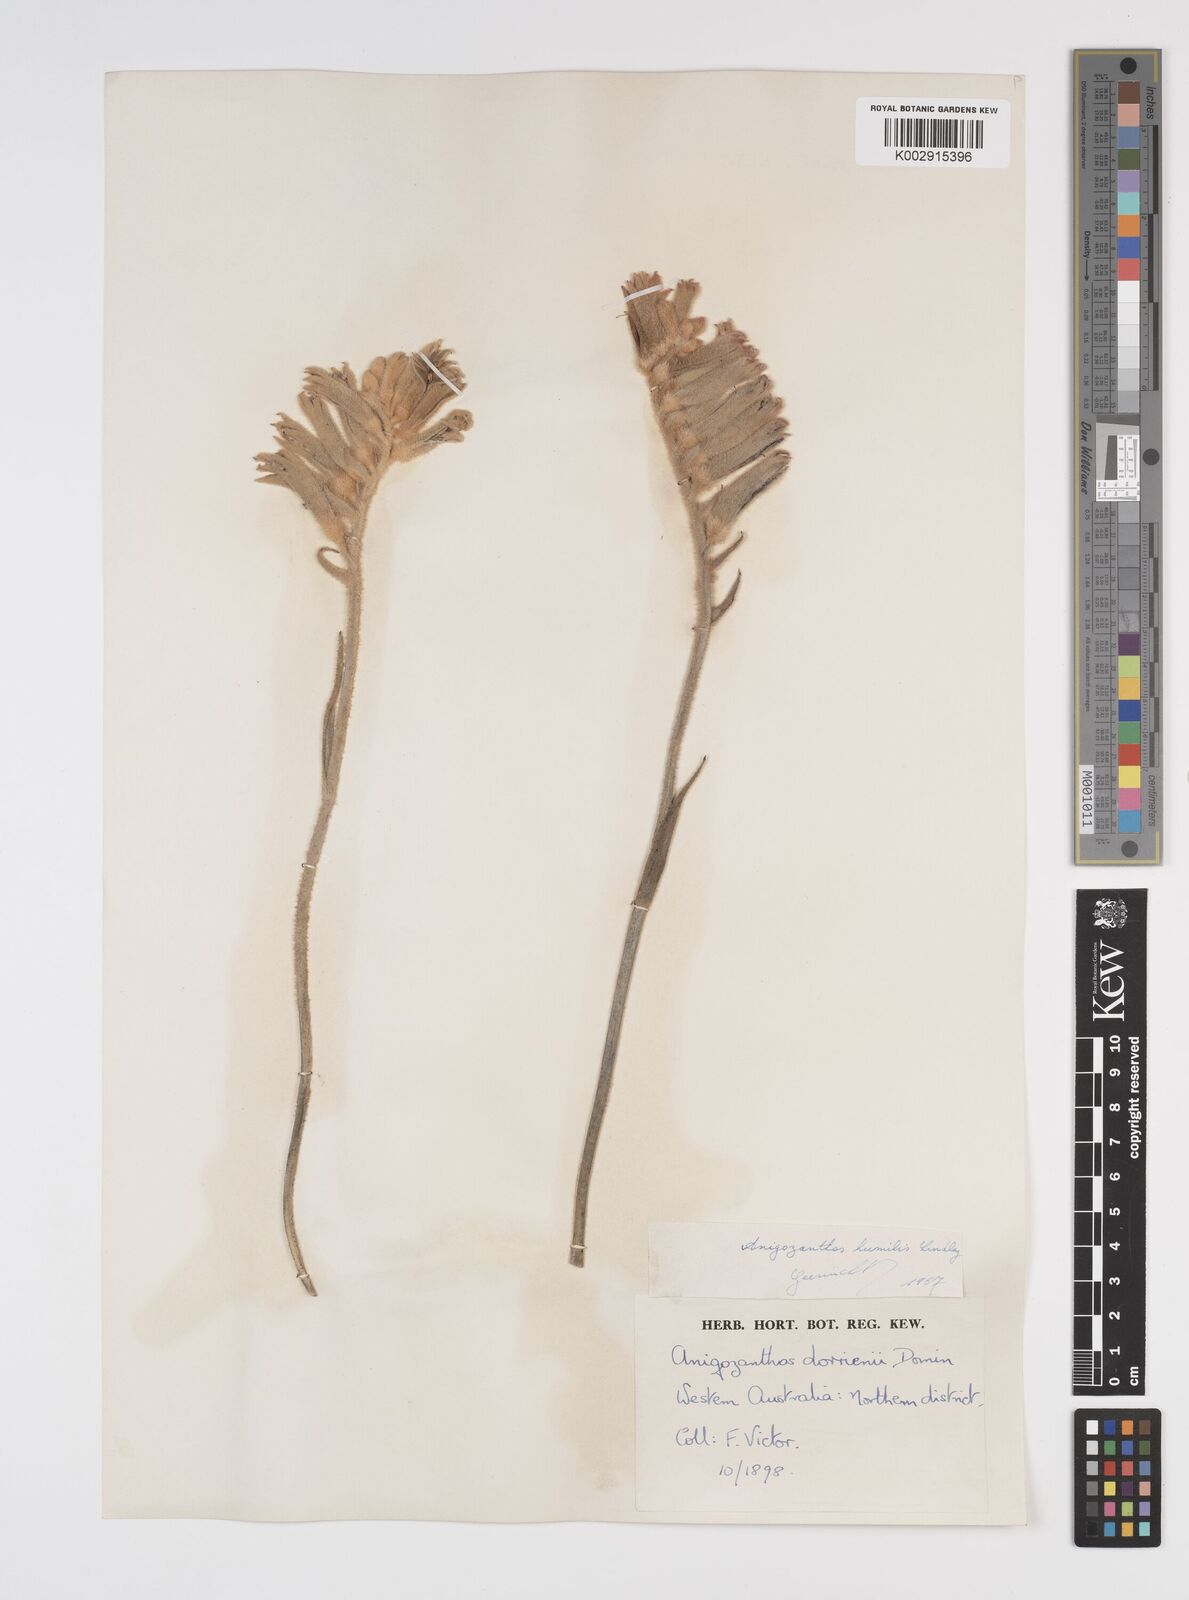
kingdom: Plantae
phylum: Tracheophyta
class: Liliopsida
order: Commelinales
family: Haemodoraceae
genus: Anigozanthos
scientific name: Anigozanthos humilis
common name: Cat's-paw
